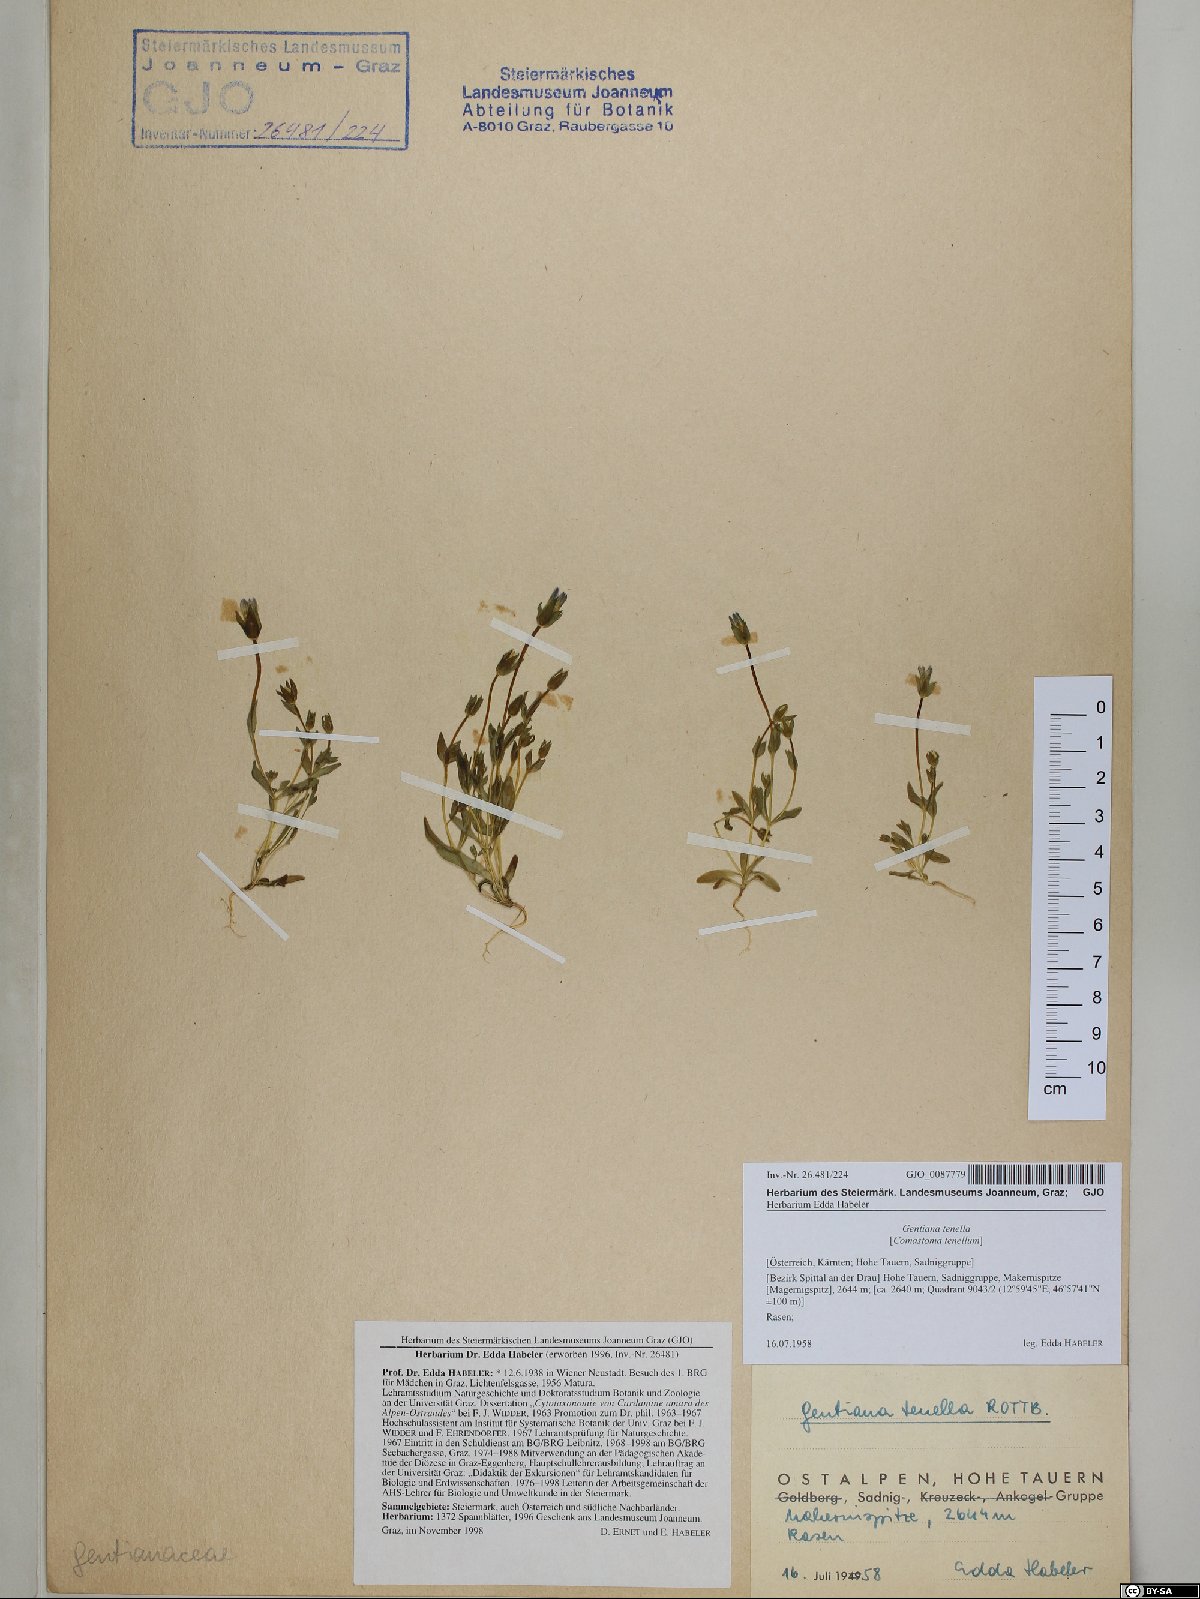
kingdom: Plantae
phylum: Tracheophyta
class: Magnoliopsida
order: Gentianales
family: Gentianaceae
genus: Comastoma
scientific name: Comastoma tenellum
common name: Dane's dwarf gentian
